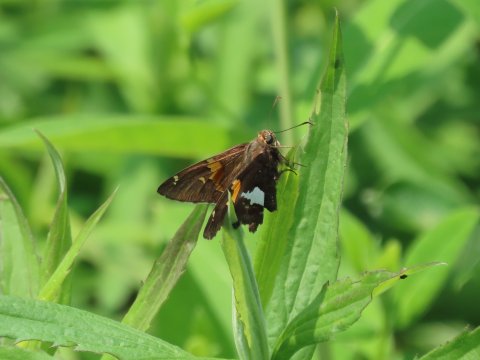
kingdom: Animalia
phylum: Arthropoda
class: Insecta
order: Lepidoptera
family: Hesperiidae
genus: Epargyreus
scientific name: Epargyreus clarus
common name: Silver-spotted Skipper
